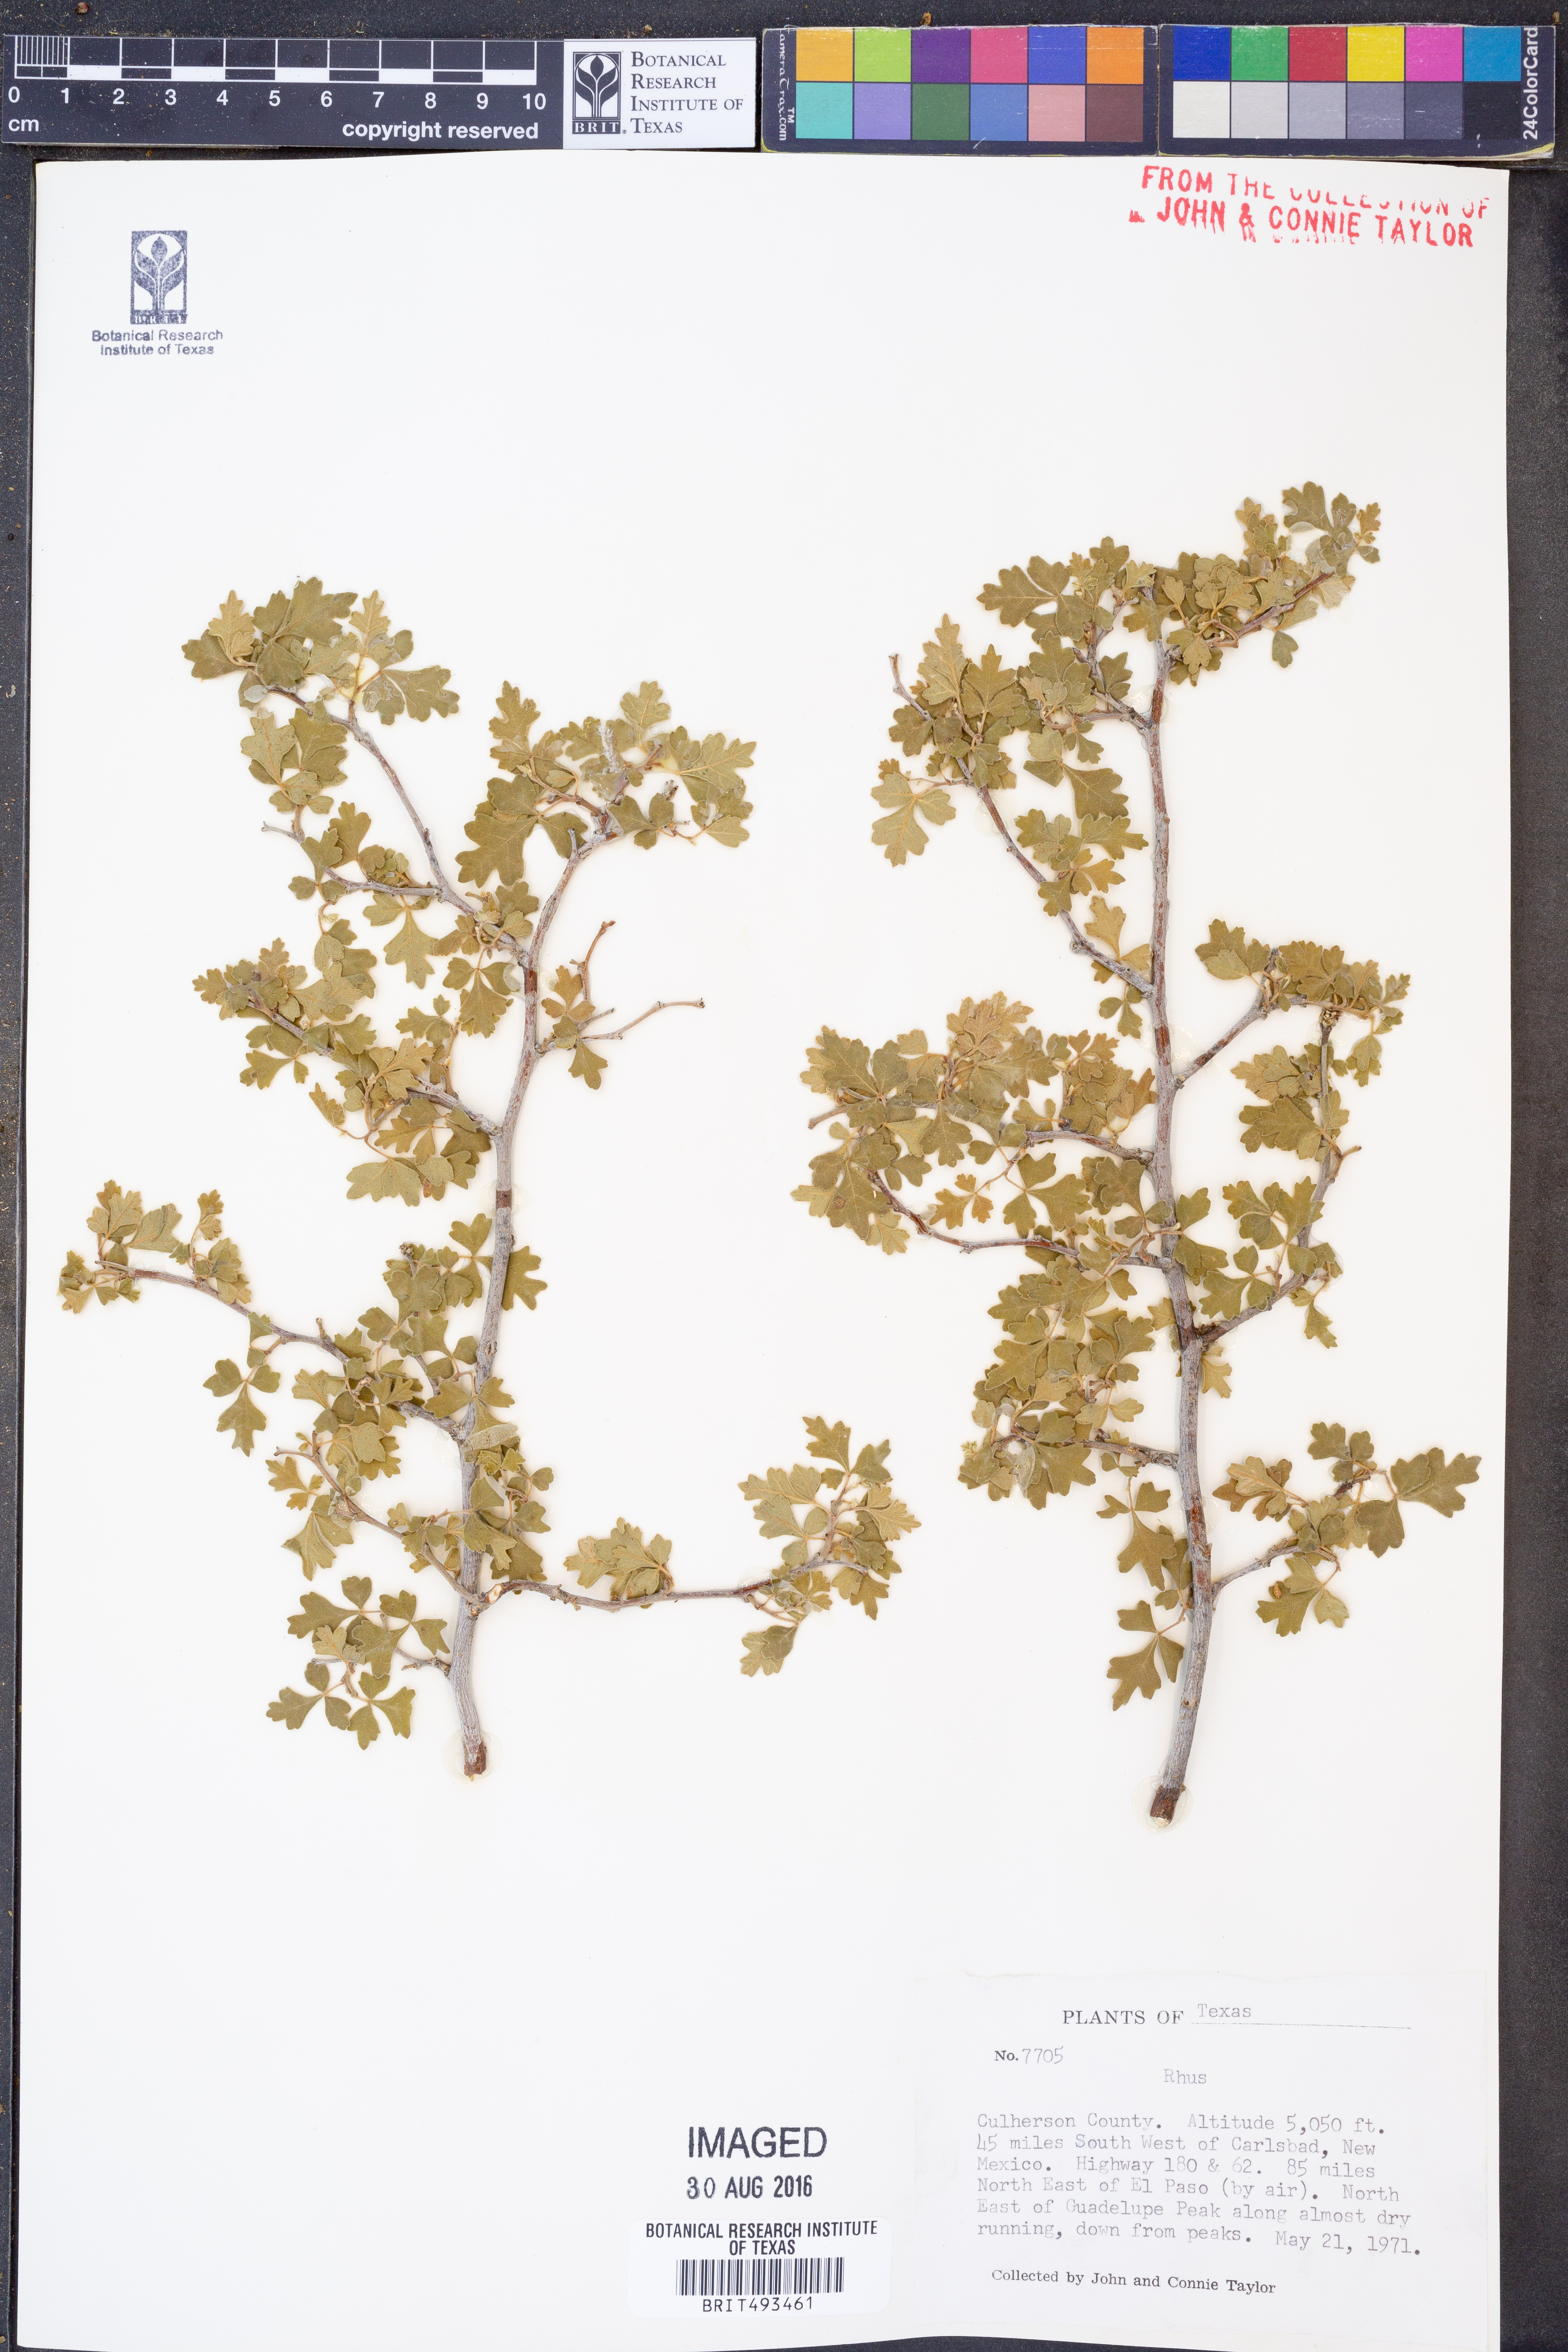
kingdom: Plantae
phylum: Tracheophyta
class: Magnoliopsida
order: Sapindales
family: Anacardiaceae
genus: Rhus
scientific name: Rhus
